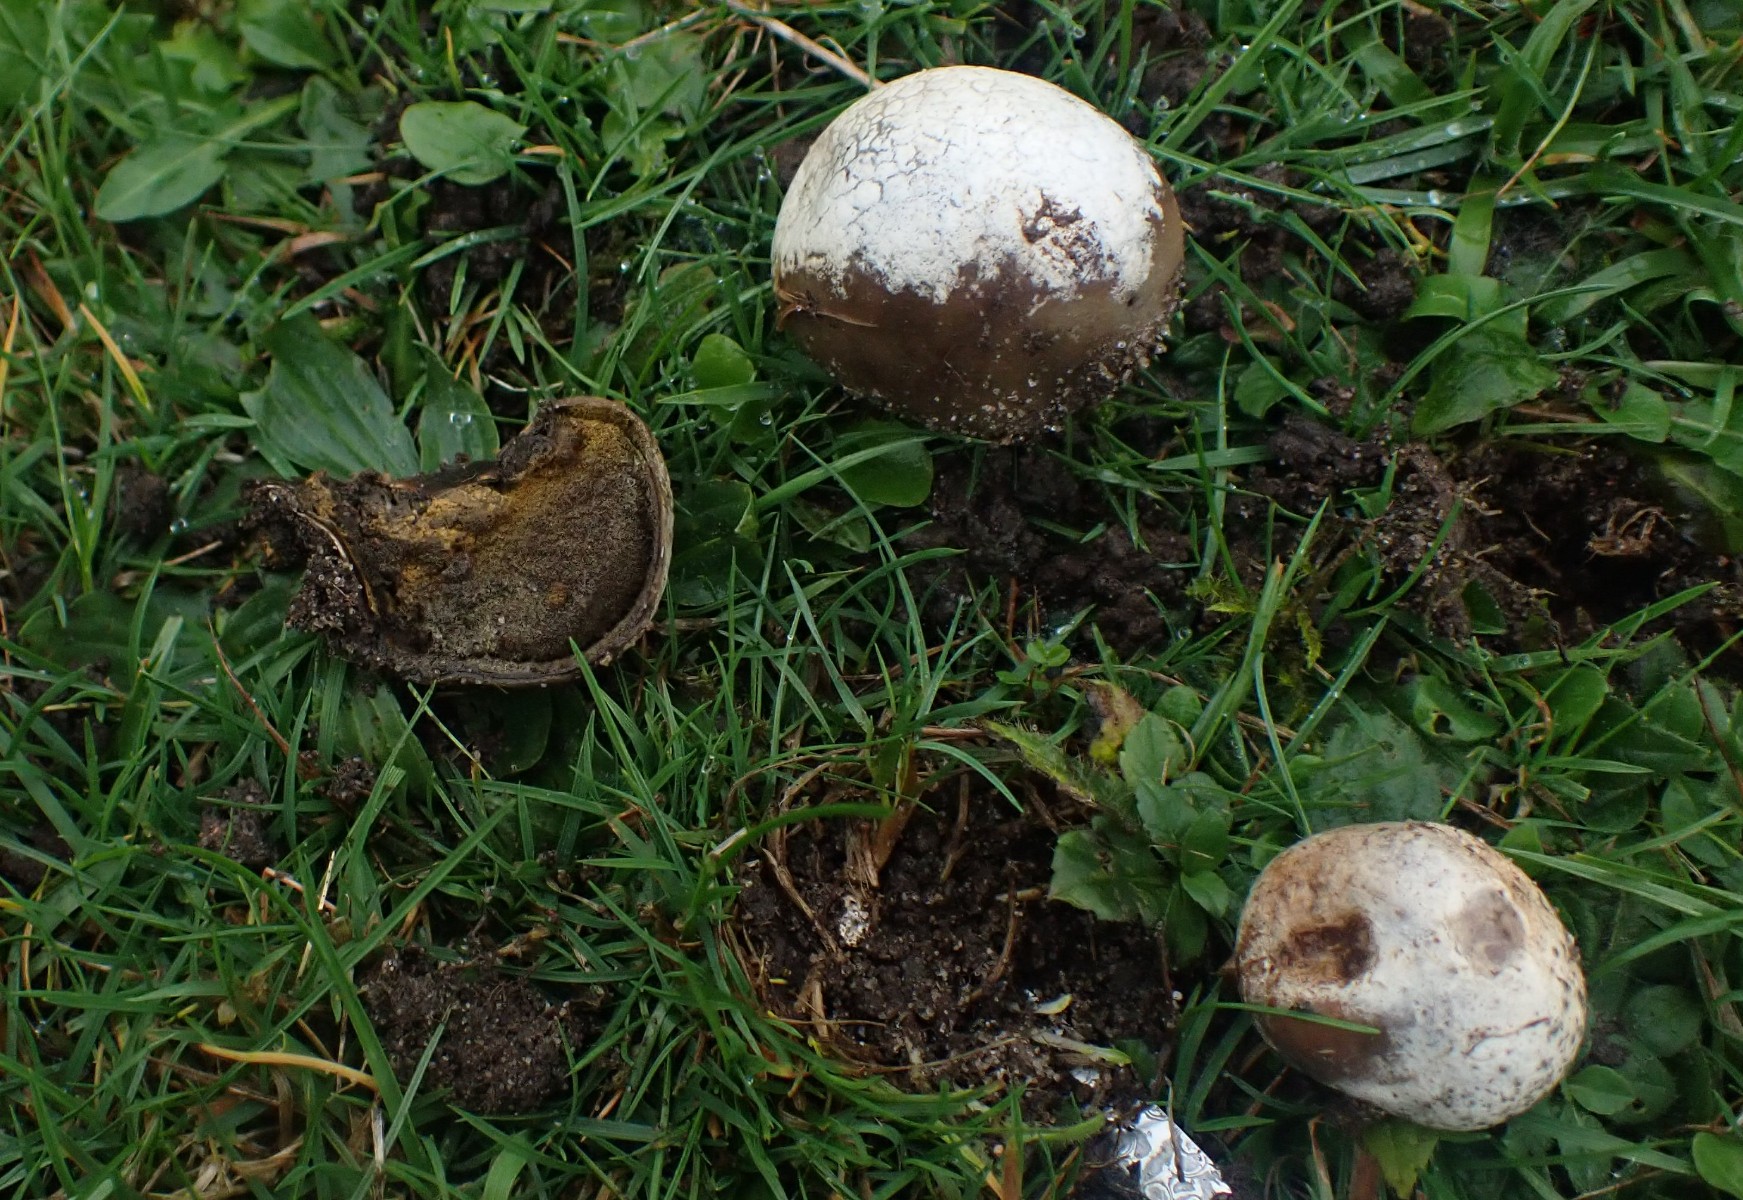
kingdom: Fungi
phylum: Basidiomycota
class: Agaricomycetes
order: Agaricales
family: Lycoperdaceae
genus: Bovista
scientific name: Bovista nigrescens
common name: sortagtig bovist
